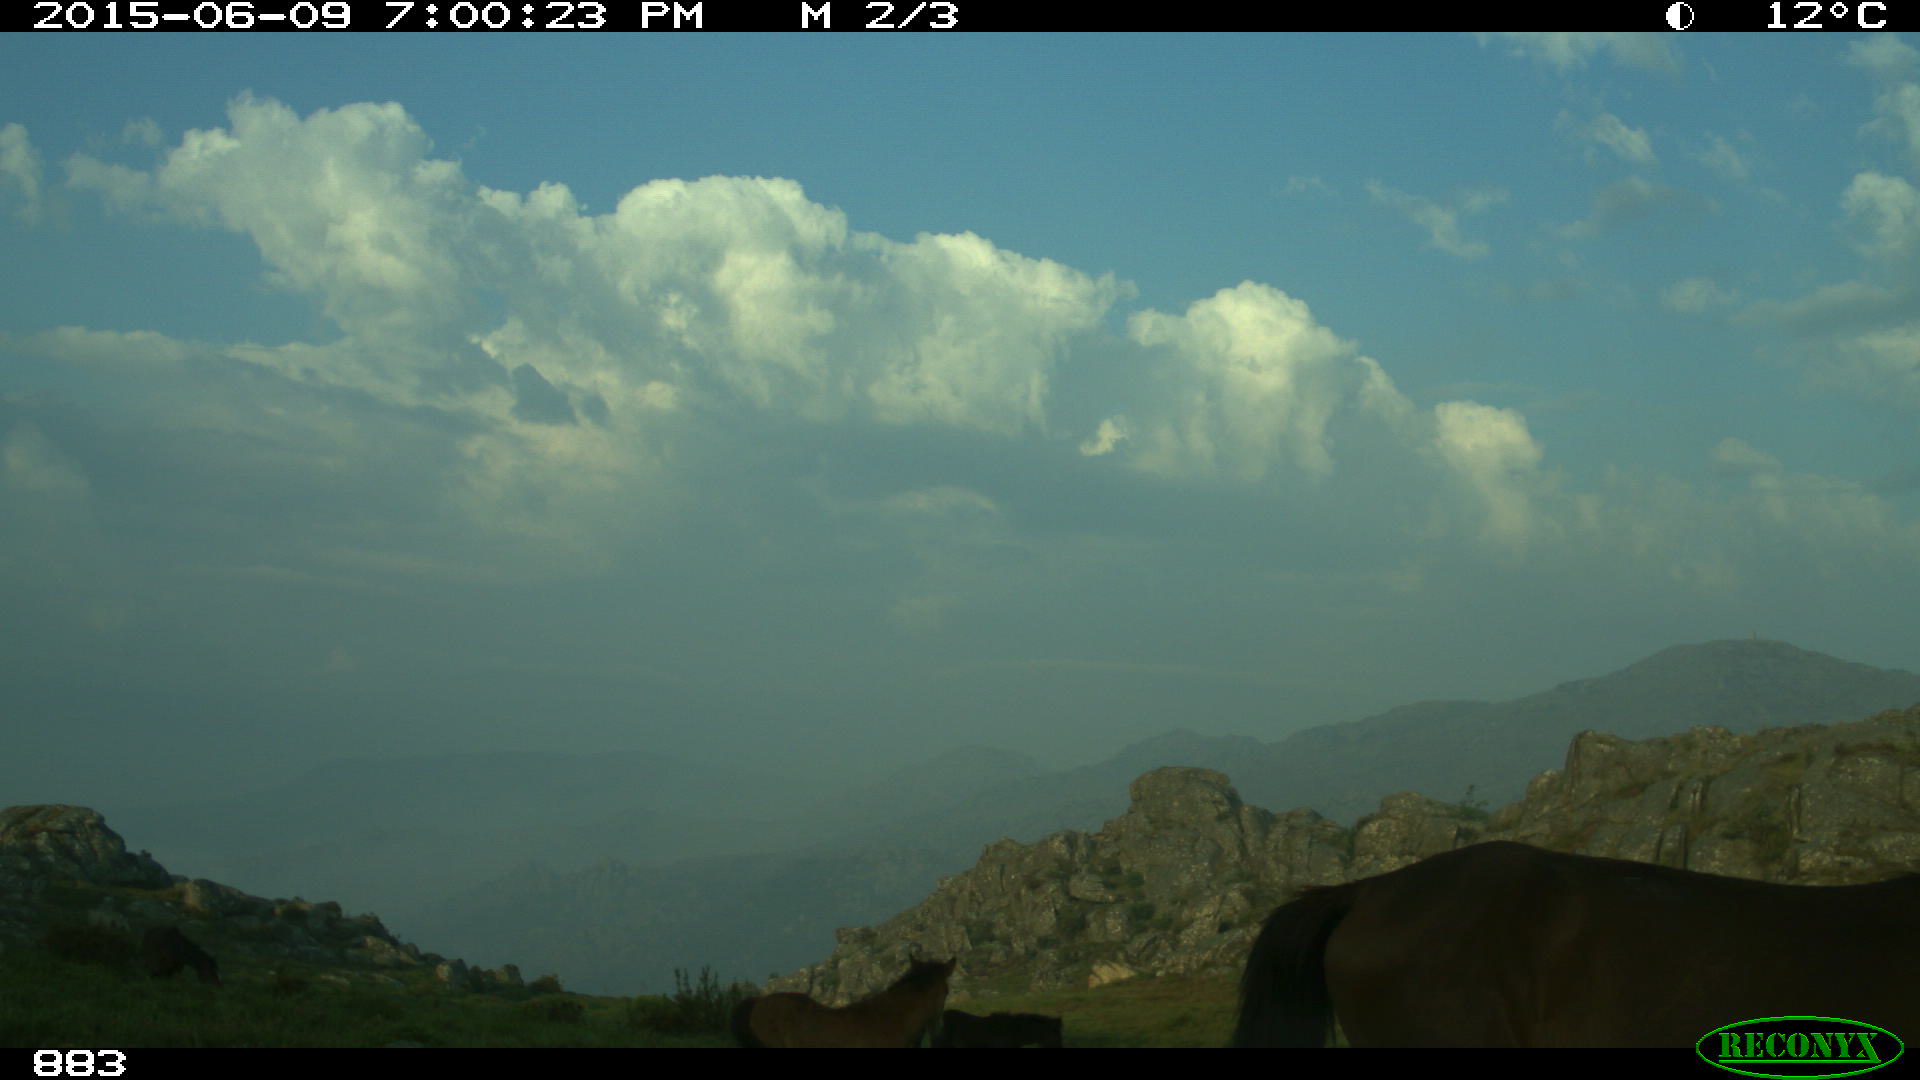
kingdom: Animalia
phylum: Chordata
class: Mammalia
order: Perissodactyla
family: Equidae
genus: Equus
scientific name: Equus caballus
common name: Horse
